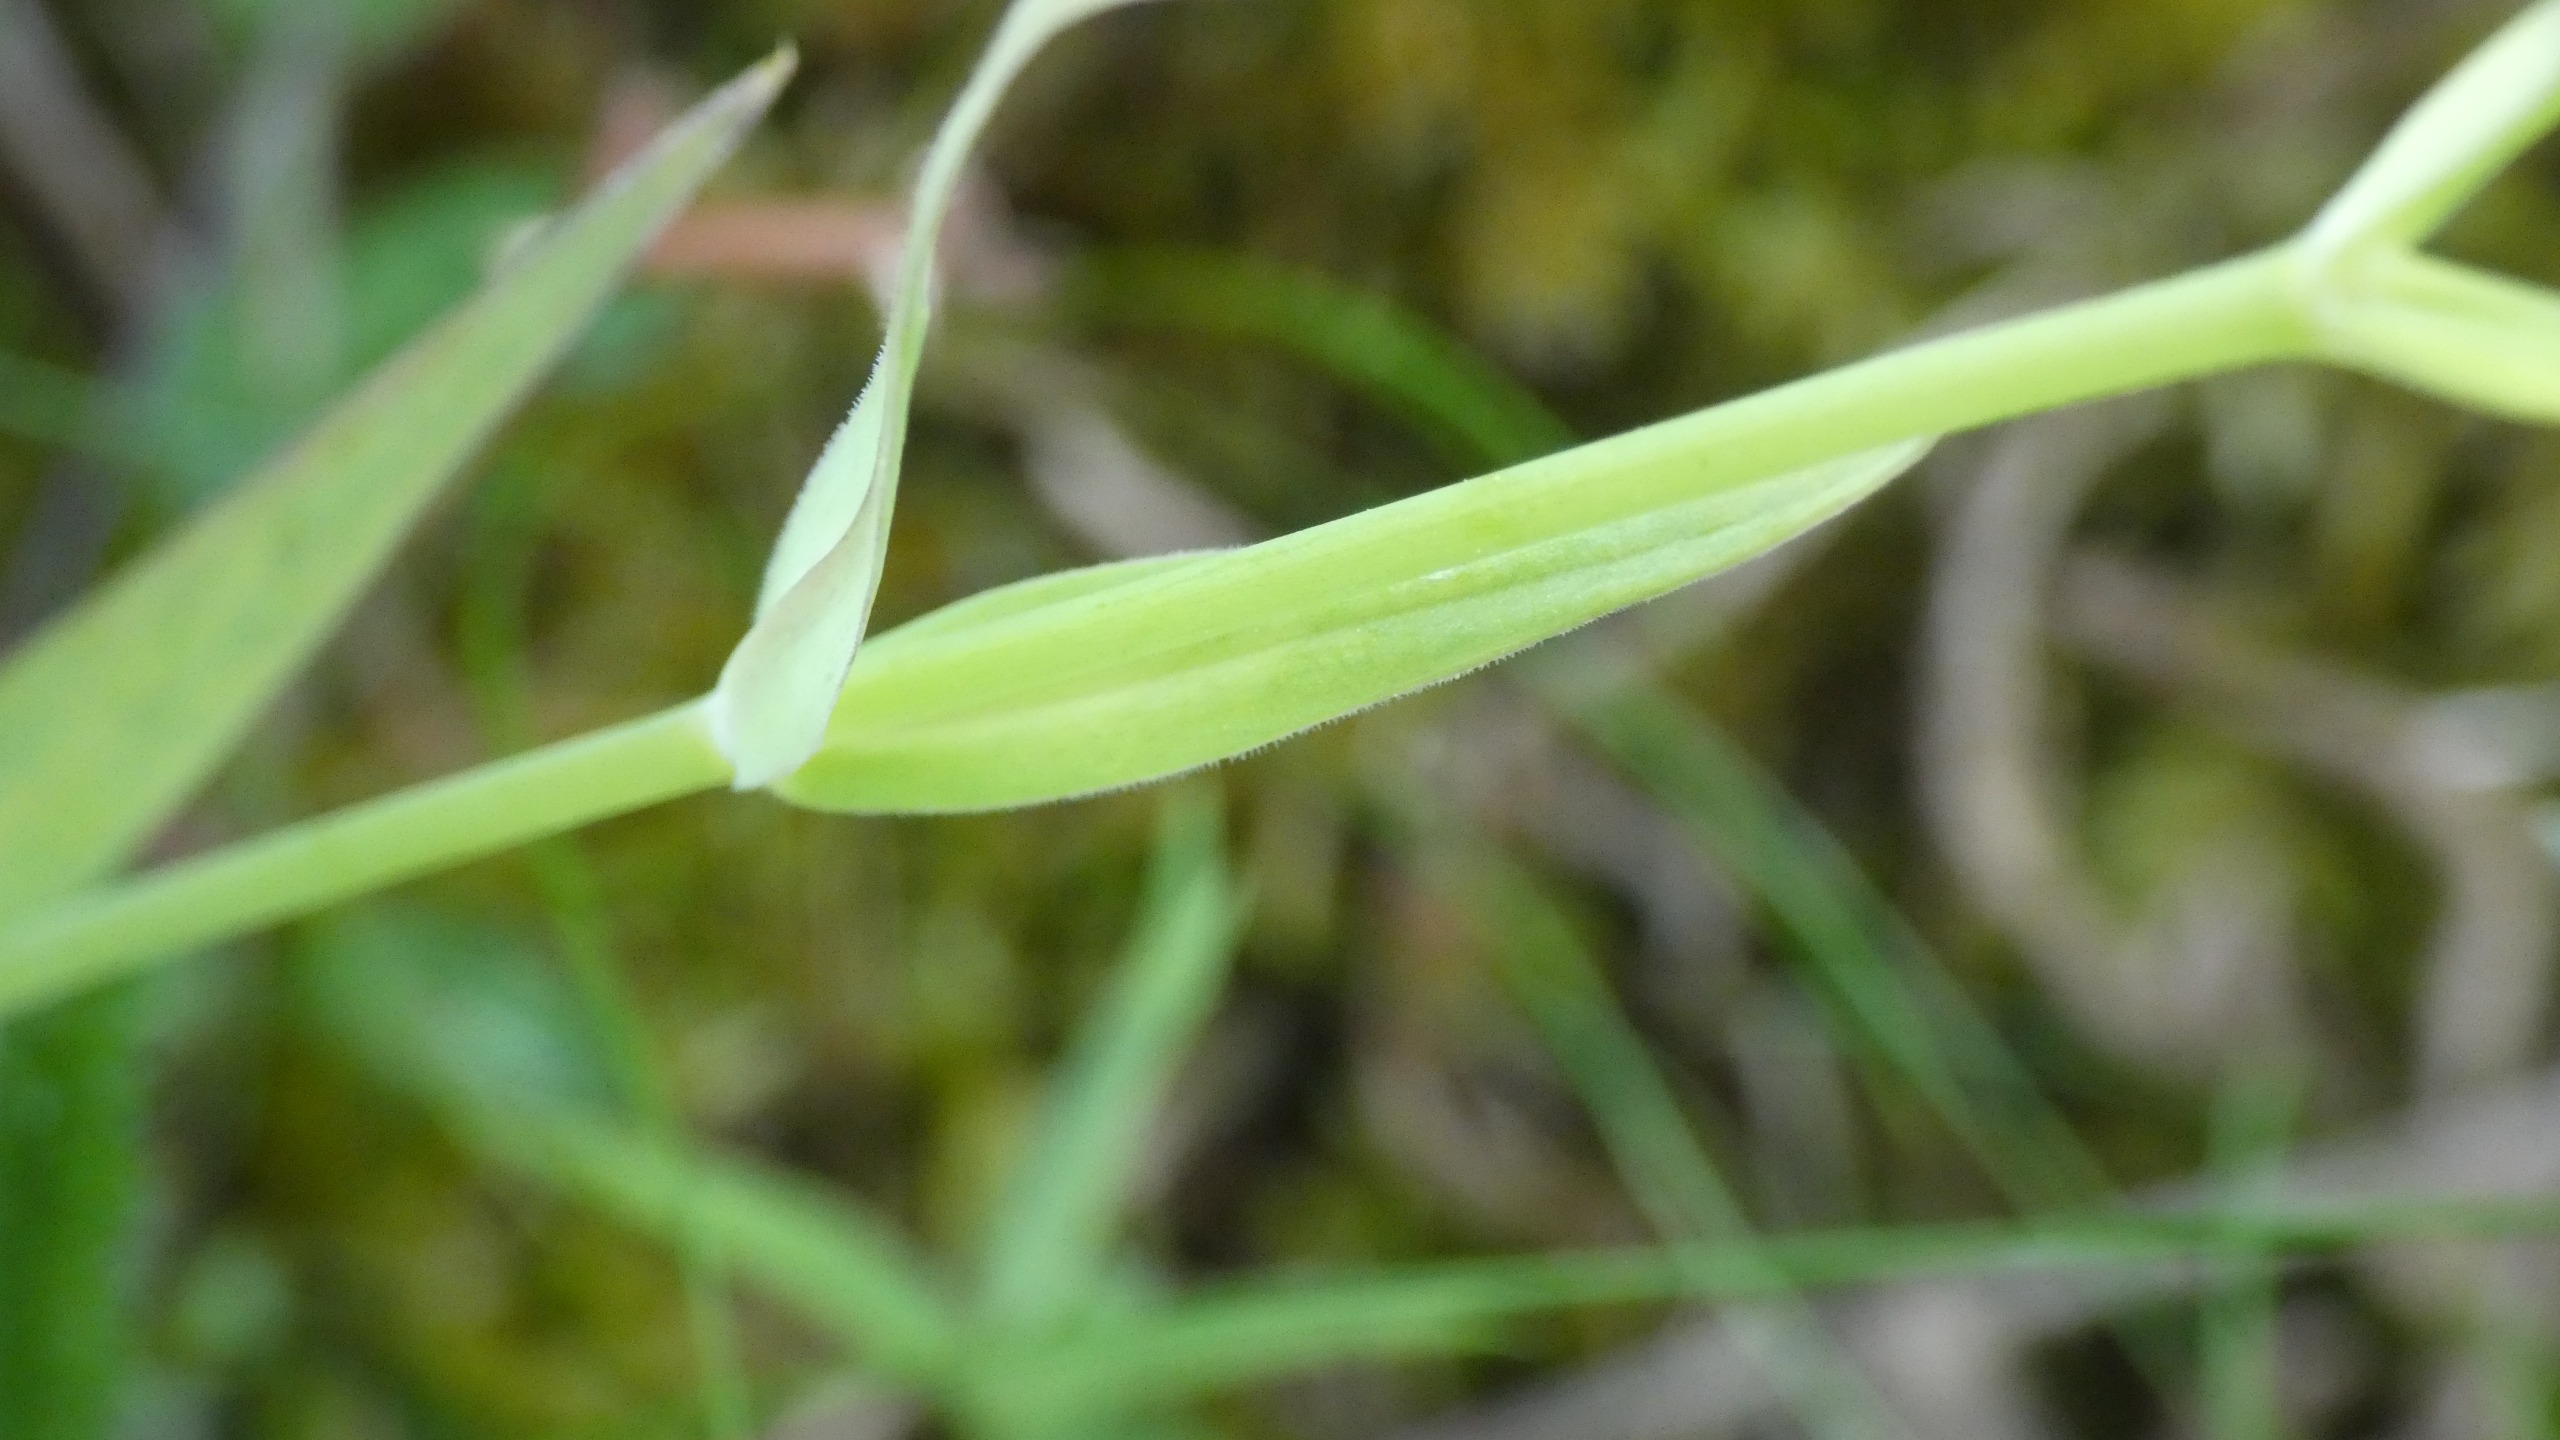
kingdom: Plantae
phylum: Tracheophyta
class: Magnoliopsida
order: Caryophyllales
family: Caryophyllaceae
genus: Rabelera
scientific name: Rabelera holostea
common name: Stor fladstjerne
